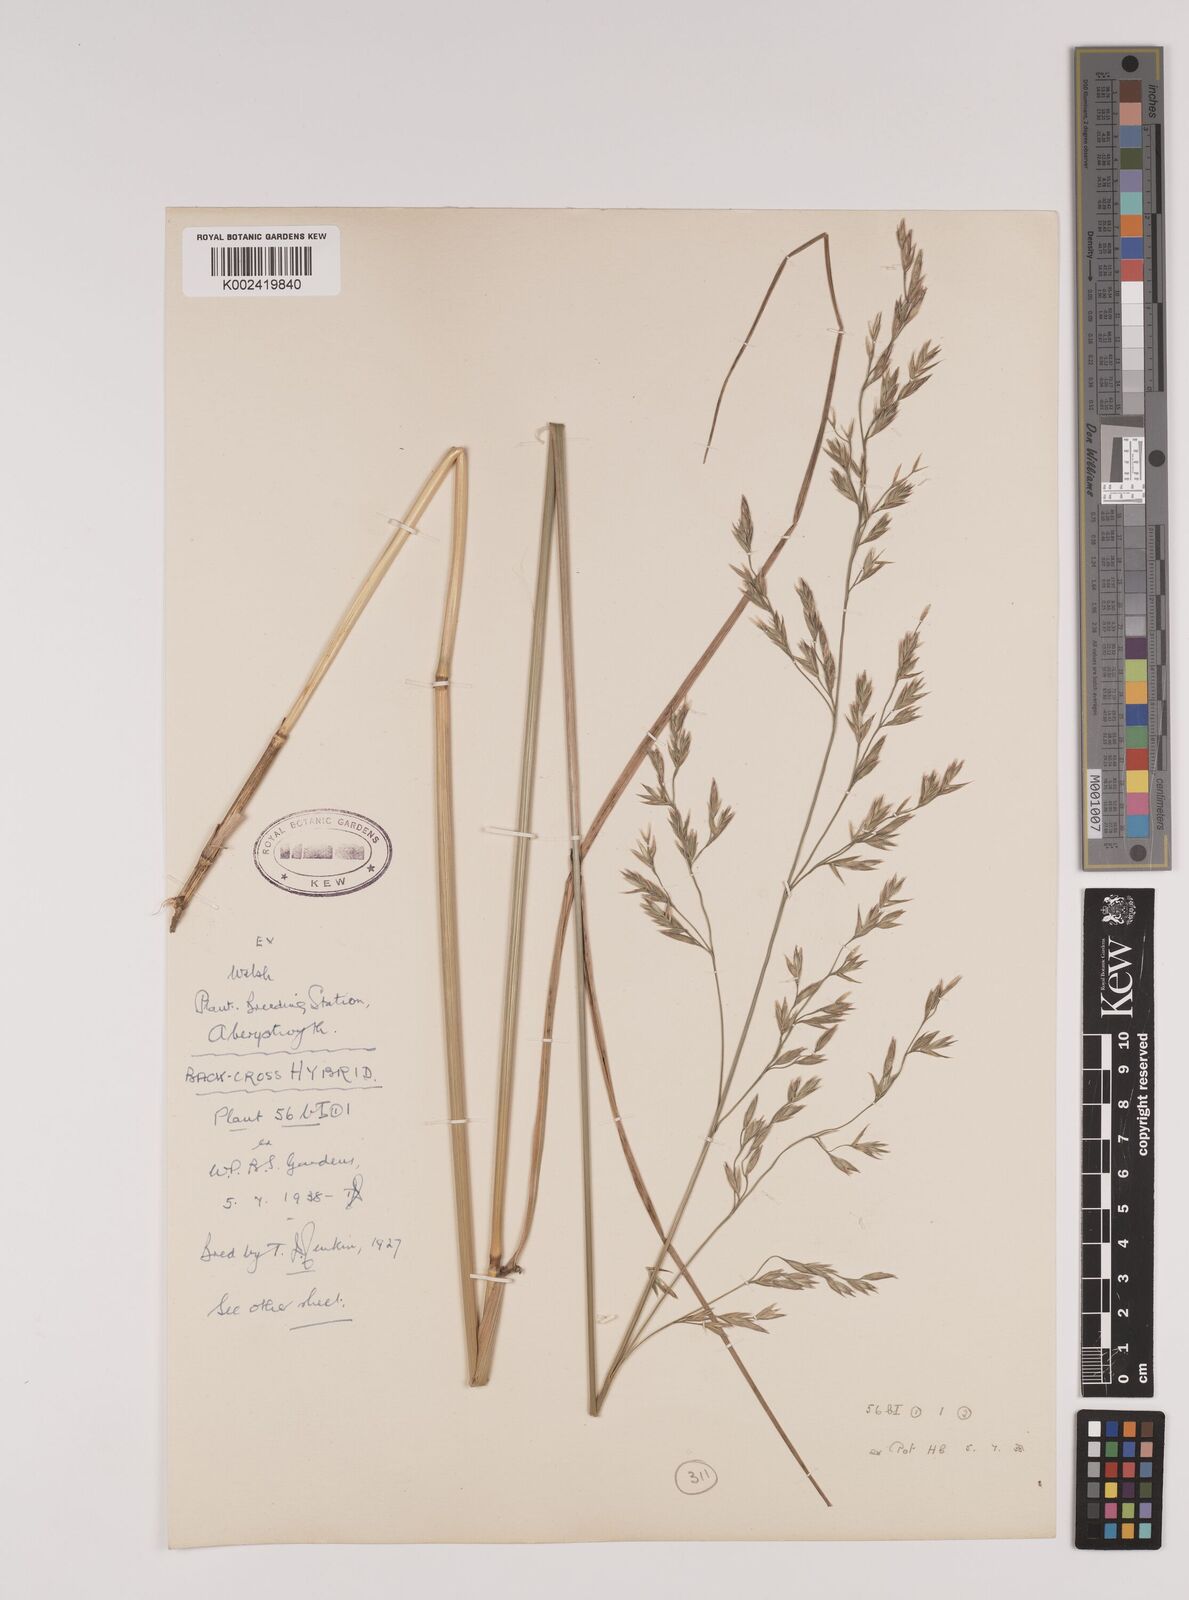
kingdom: Plantae
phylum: Tracheophyta
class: Liliopsida
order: Poales
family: Poaceae
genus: Festuca
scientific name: Festuca rubra
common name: Red fescue
